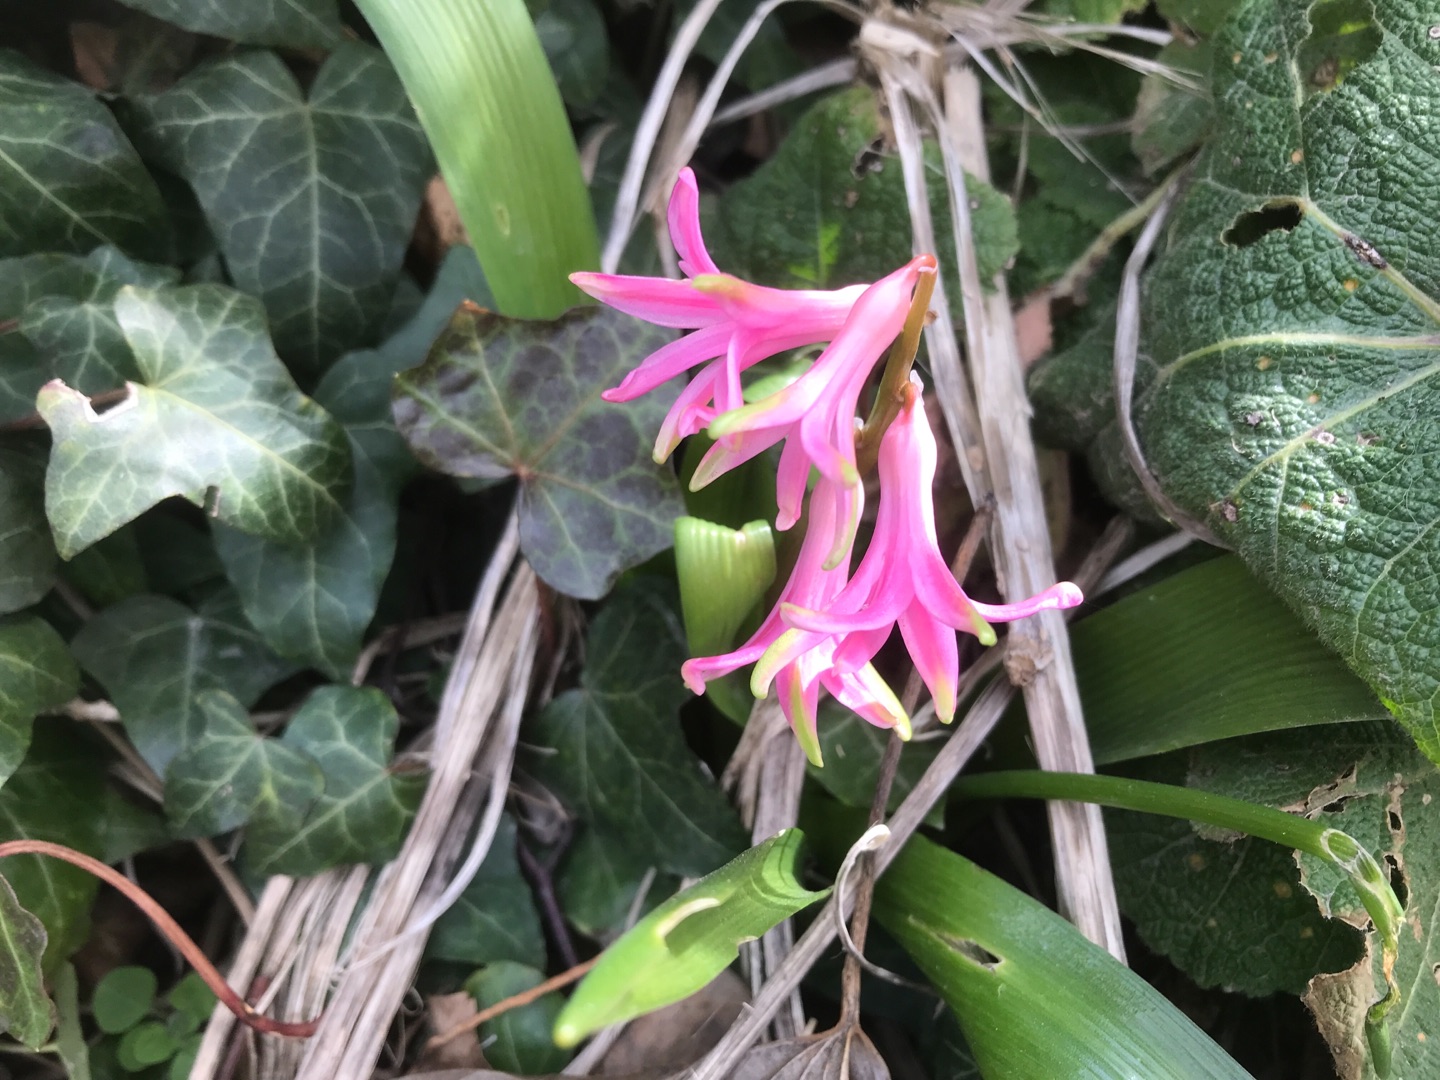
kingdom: Plantae
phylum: Tracheophyta
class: Liliopsida
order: Asparagales
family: Asparagaceae
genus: Hyacinthus
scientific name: Hyacinthus orientalis
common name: Hyacint
